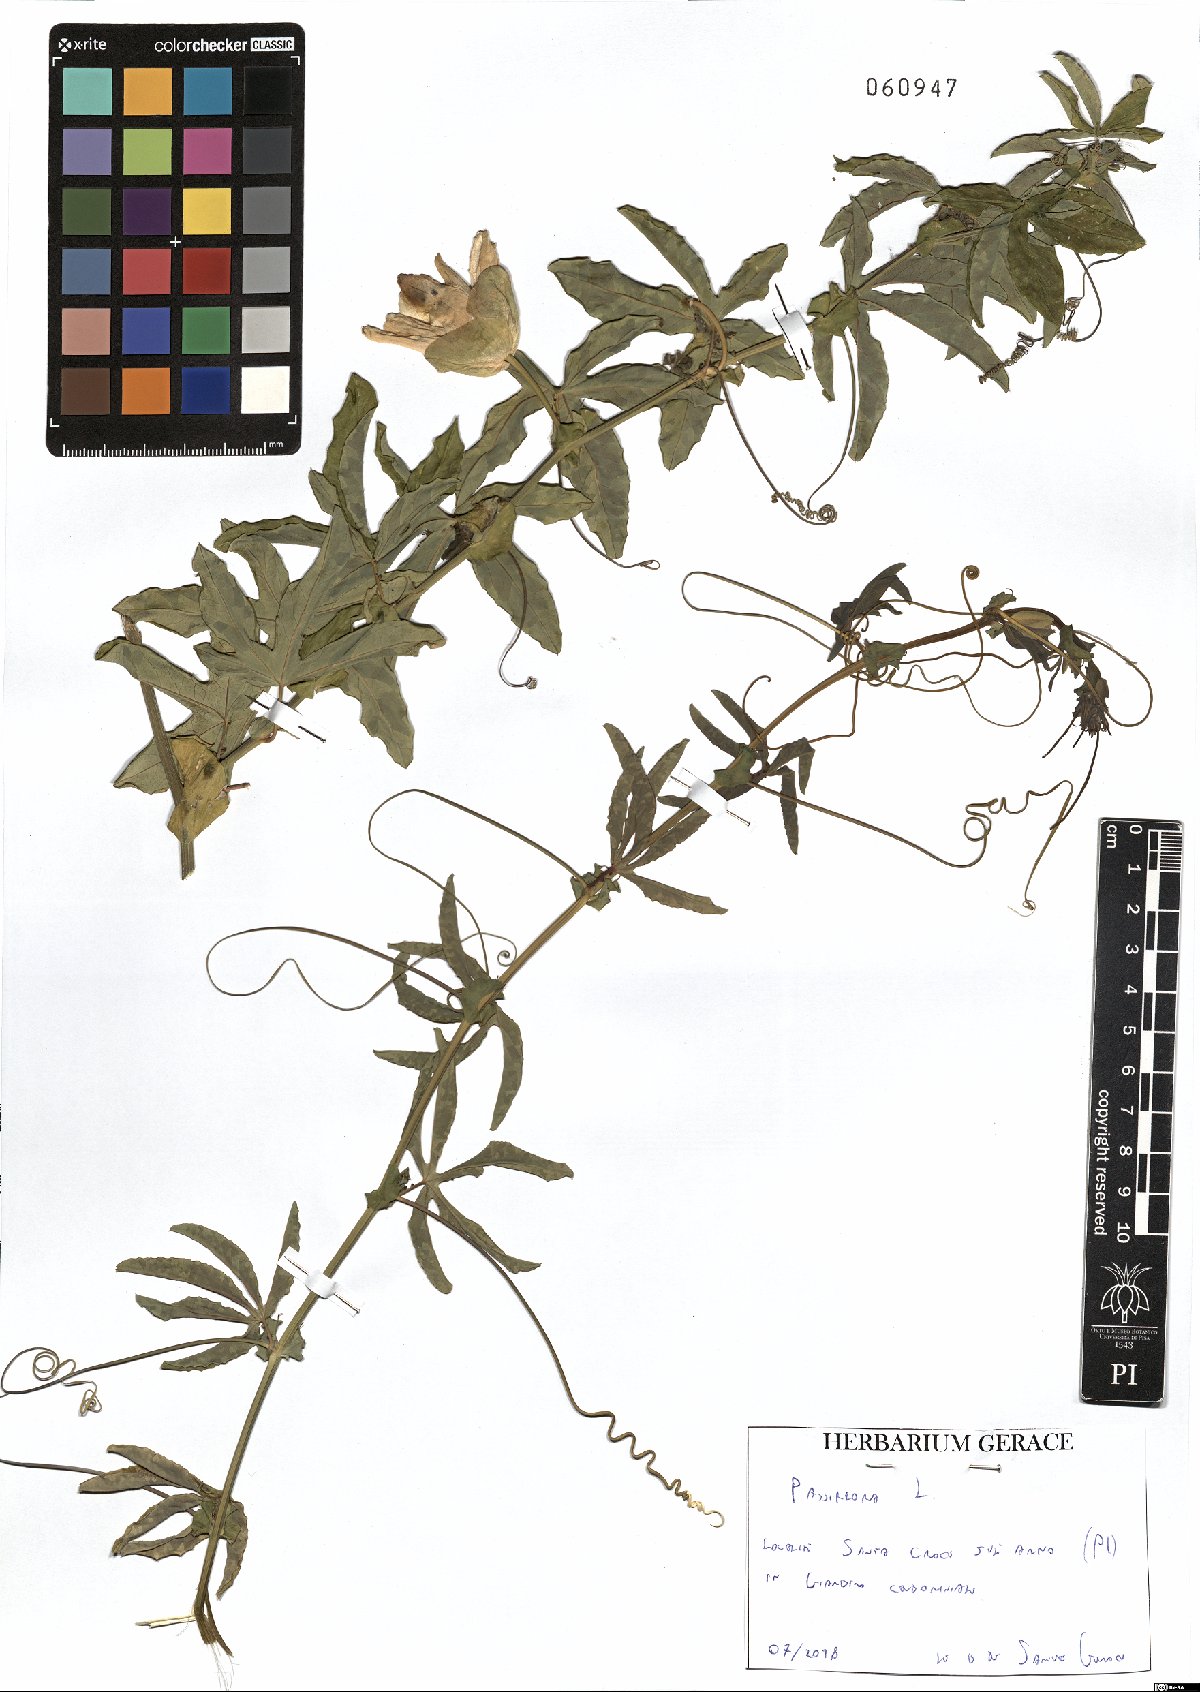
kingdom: Plantae
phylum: Tracheophyta
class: Magnoliopsida
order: Malpighiales
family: Passifloraceae
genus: Passiflora
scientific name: Passiflora caerulea
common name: Blue passionflower
